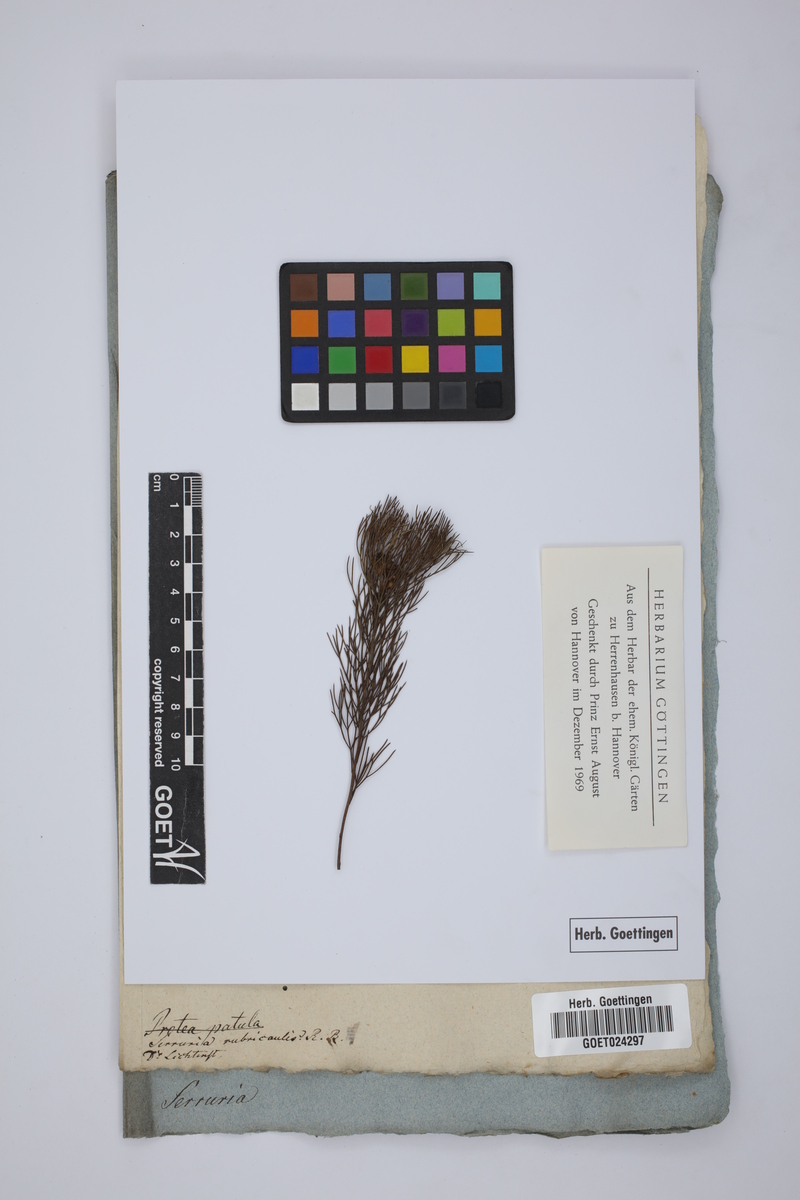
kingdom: Plantae
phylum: Tracheophyta
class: Magnoliopsida
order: Proteales
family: Proteaceae
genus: Serruria
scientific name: Serruria rubricaulis
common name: Red-stem spiderhead
